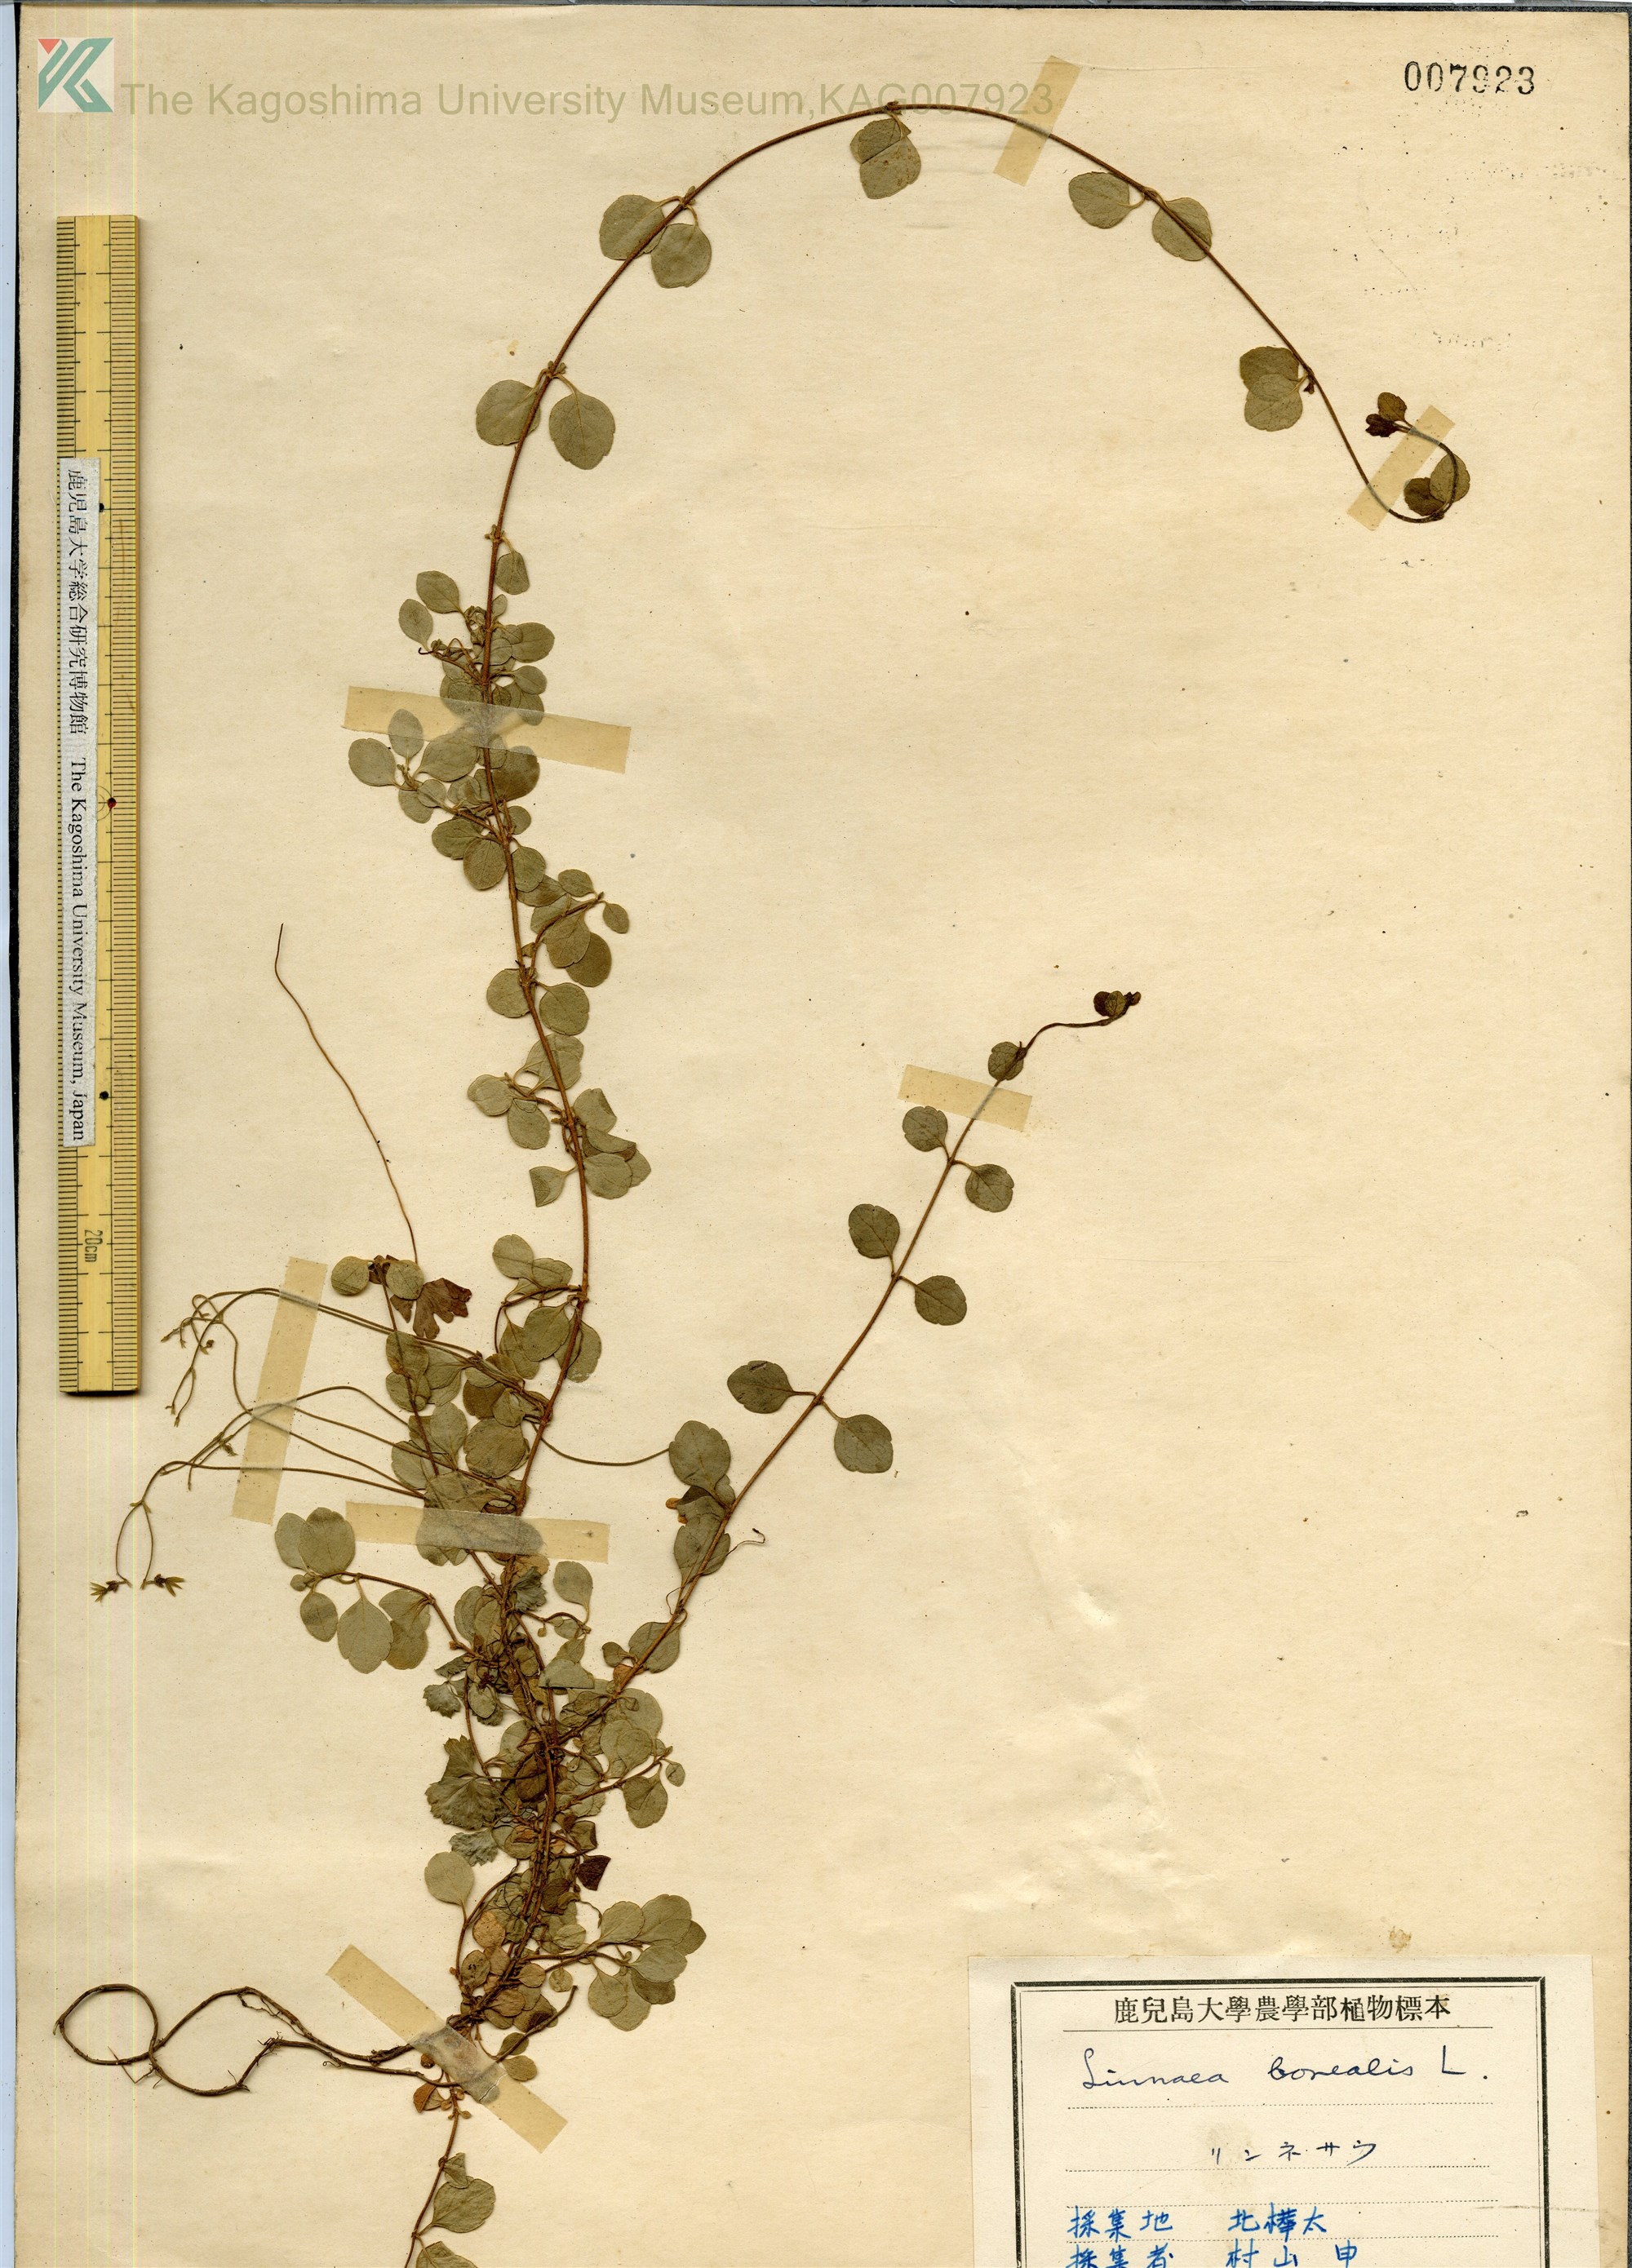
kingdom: Plantae
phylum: Tracheophyta
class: Magnoliopsida
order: Dipsacales
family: Caprifoliaceae
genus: Linnaea
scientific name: Linnaea borealis
